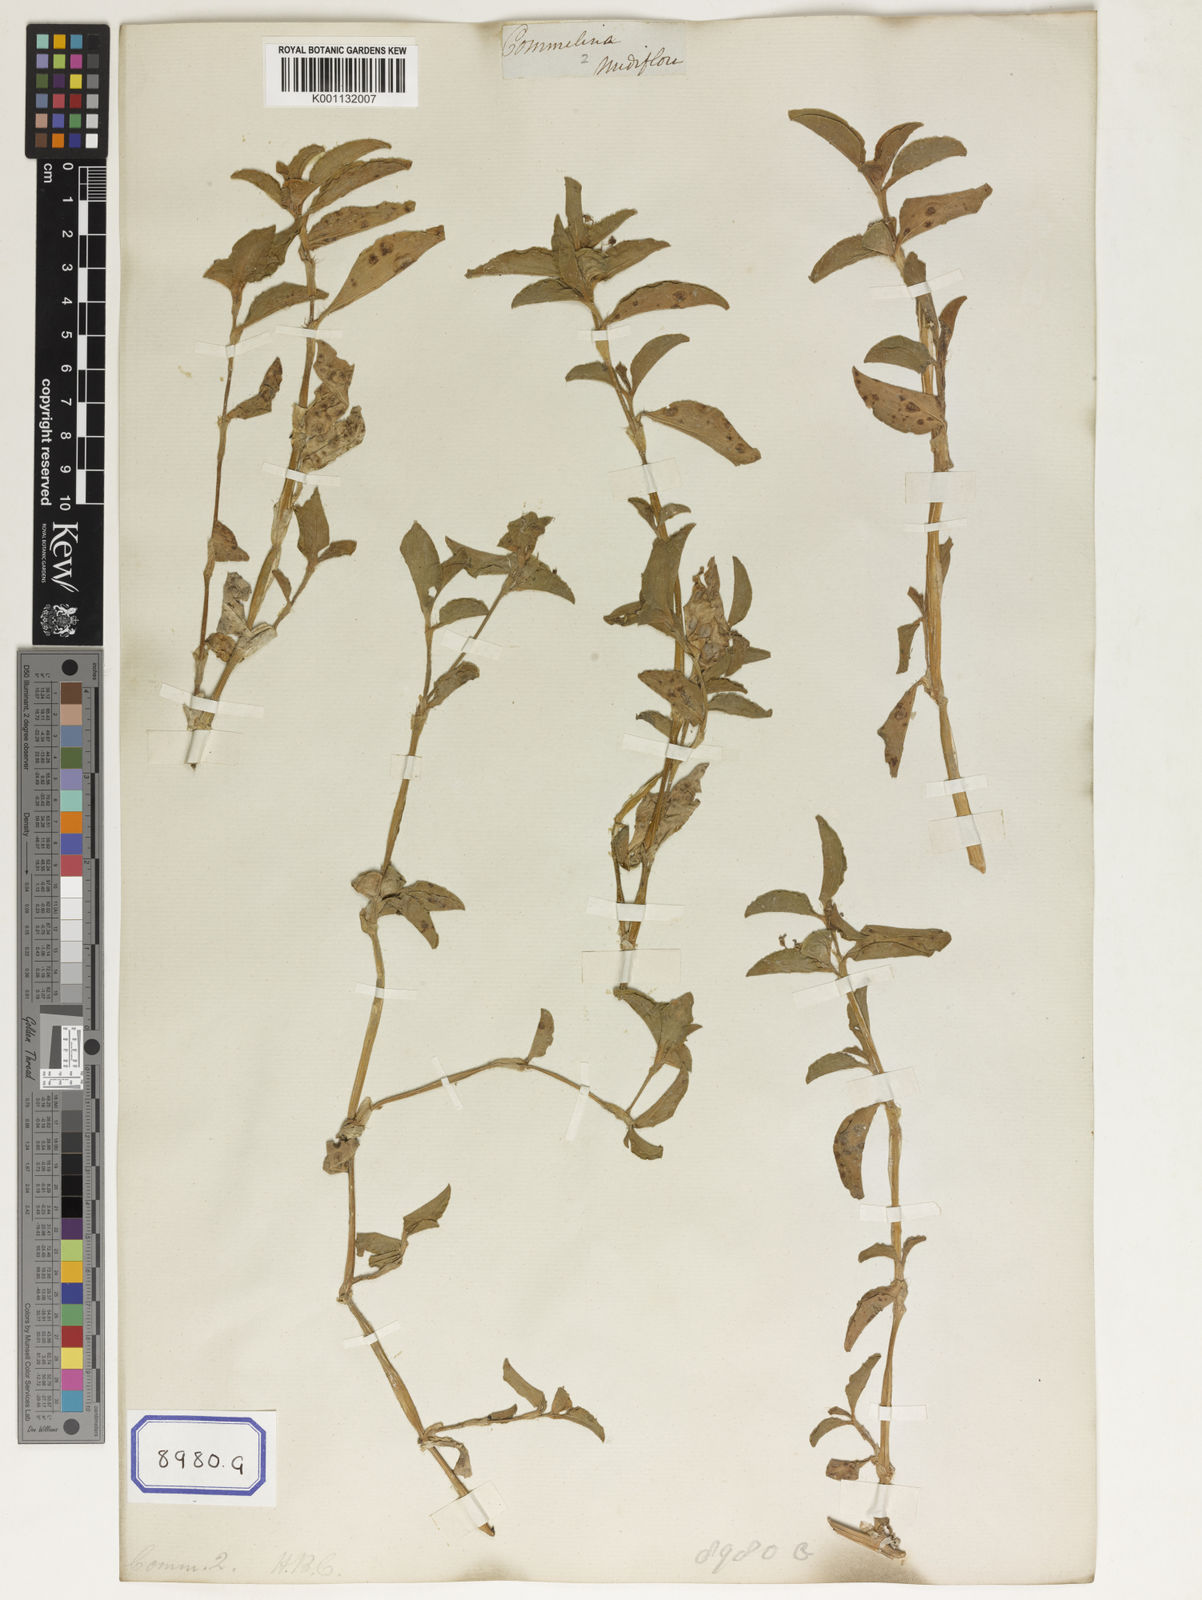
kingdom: Plantae
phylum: Tracheophyta
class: Liliopsida
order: Commelinales
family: Commelinaceae
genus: Commelina
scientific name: Commelina benghalensis
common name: Jio
